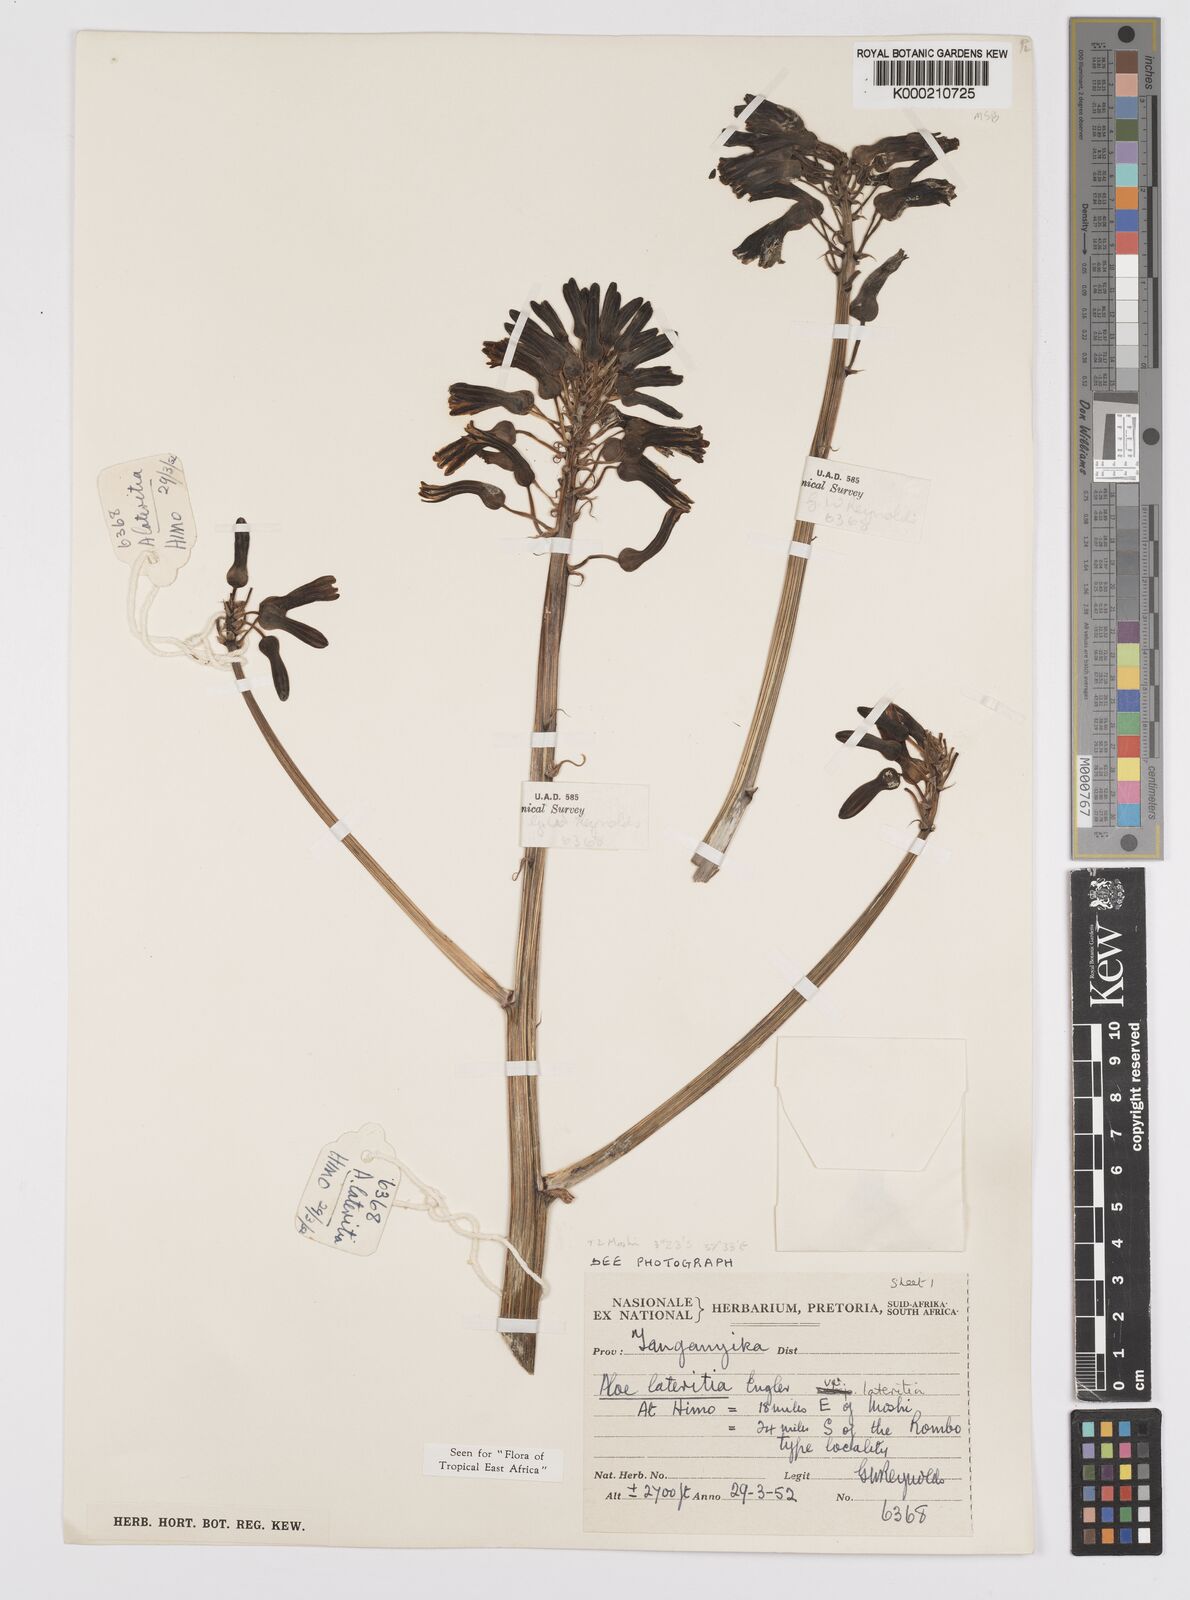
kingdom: Plantae
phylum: Tracheophyta
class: Liliopsida
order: Asparagales
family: Asphodelaceae
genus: Aloe
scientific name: Aloe lateritia
